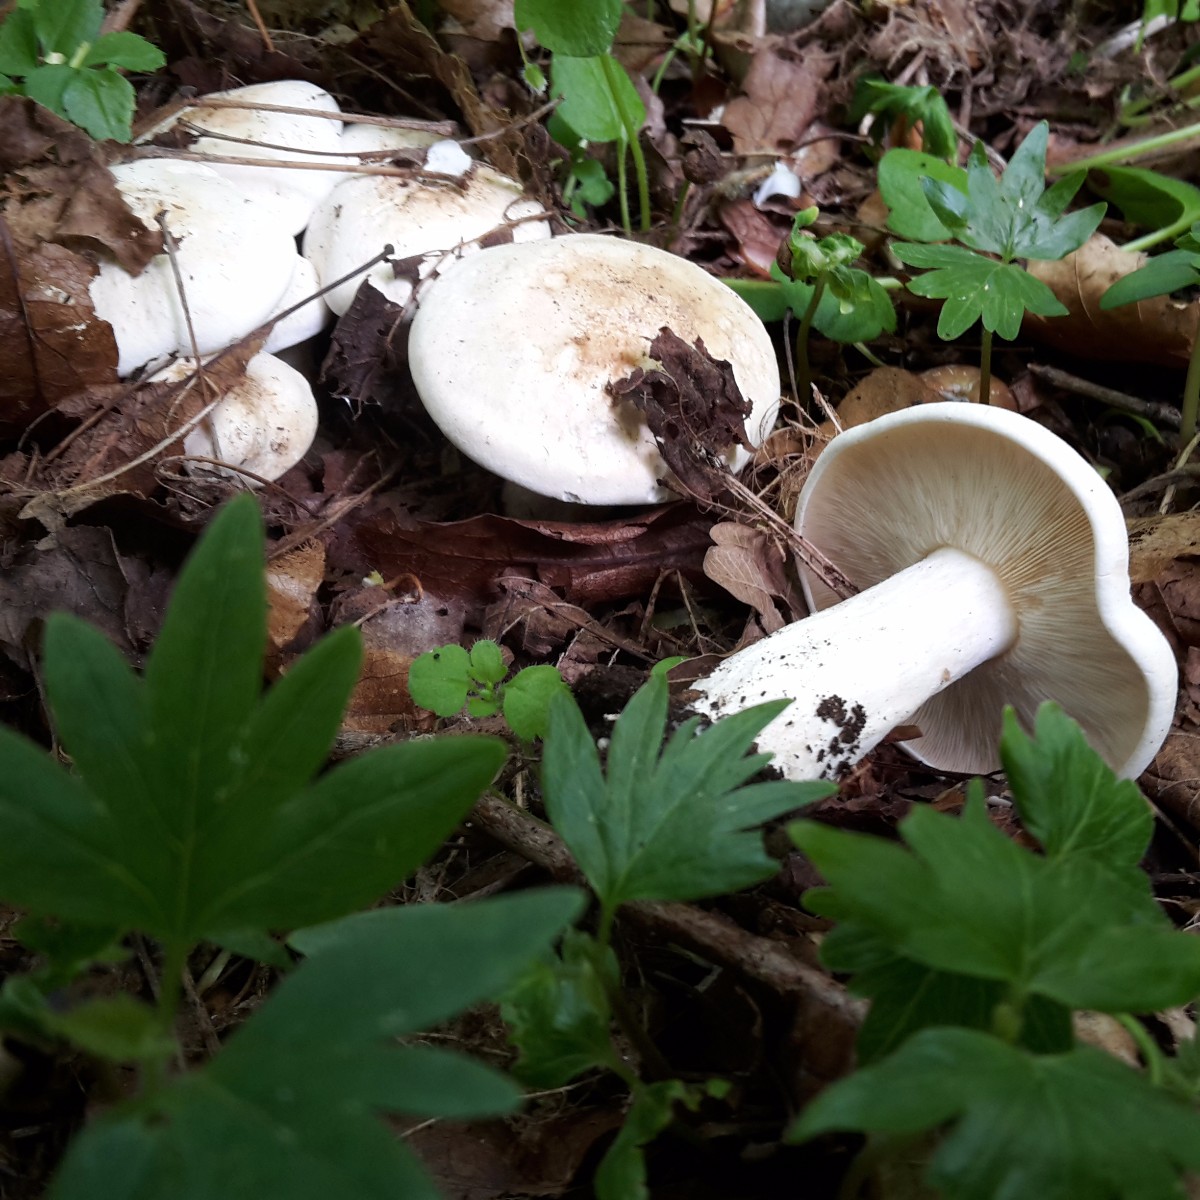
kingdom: Fungi
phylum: Basidiomycota
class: Agaricomycetes
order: Agaricales
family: Lyophyllaceae
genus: Calocybe
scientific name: Calocybe gambosa
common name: vårmusseron
